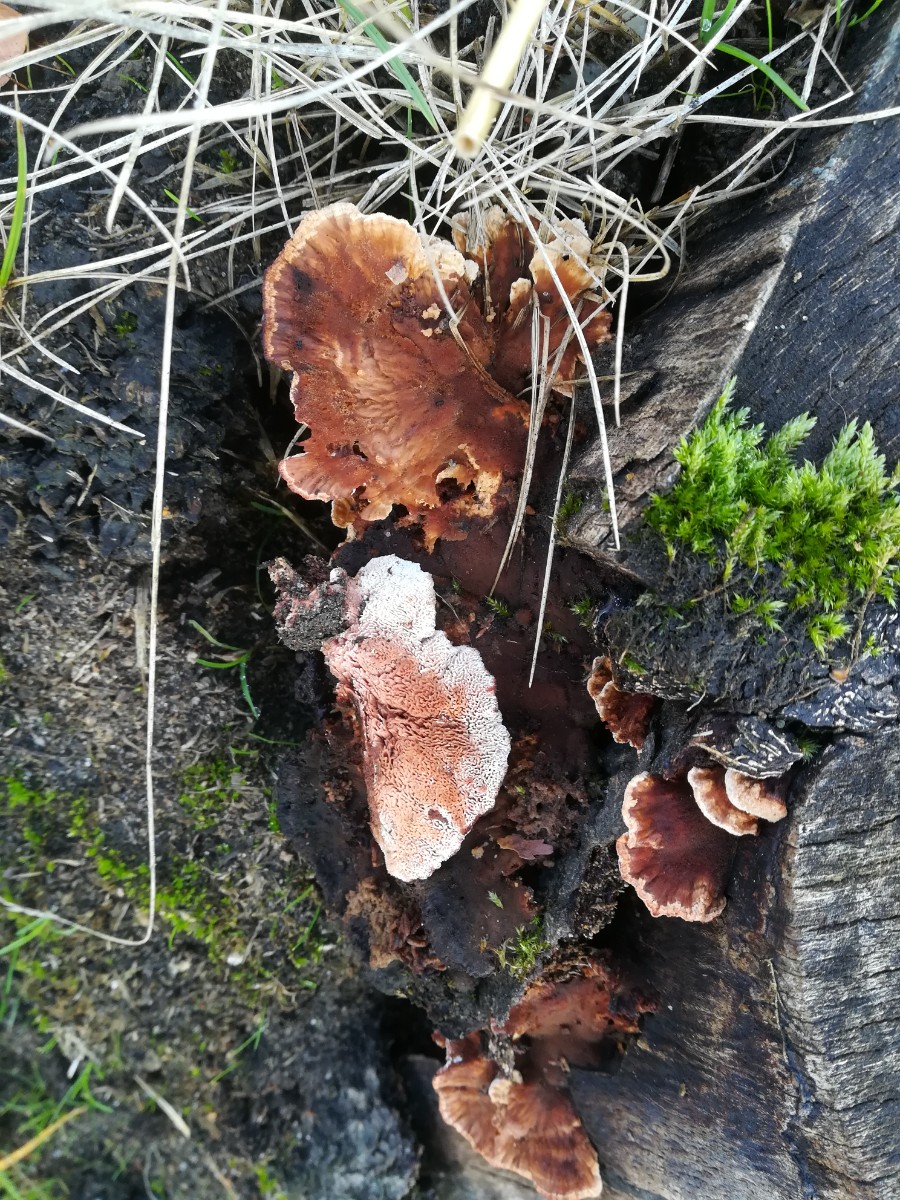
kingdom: Fungi
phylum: Basidiomycota
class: Agaricomycetes
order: Polyporales
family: Podoscyphaceae
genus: Abortiporus
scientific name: Abortiporus biennis
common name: rødmende pjalteporesvamp
